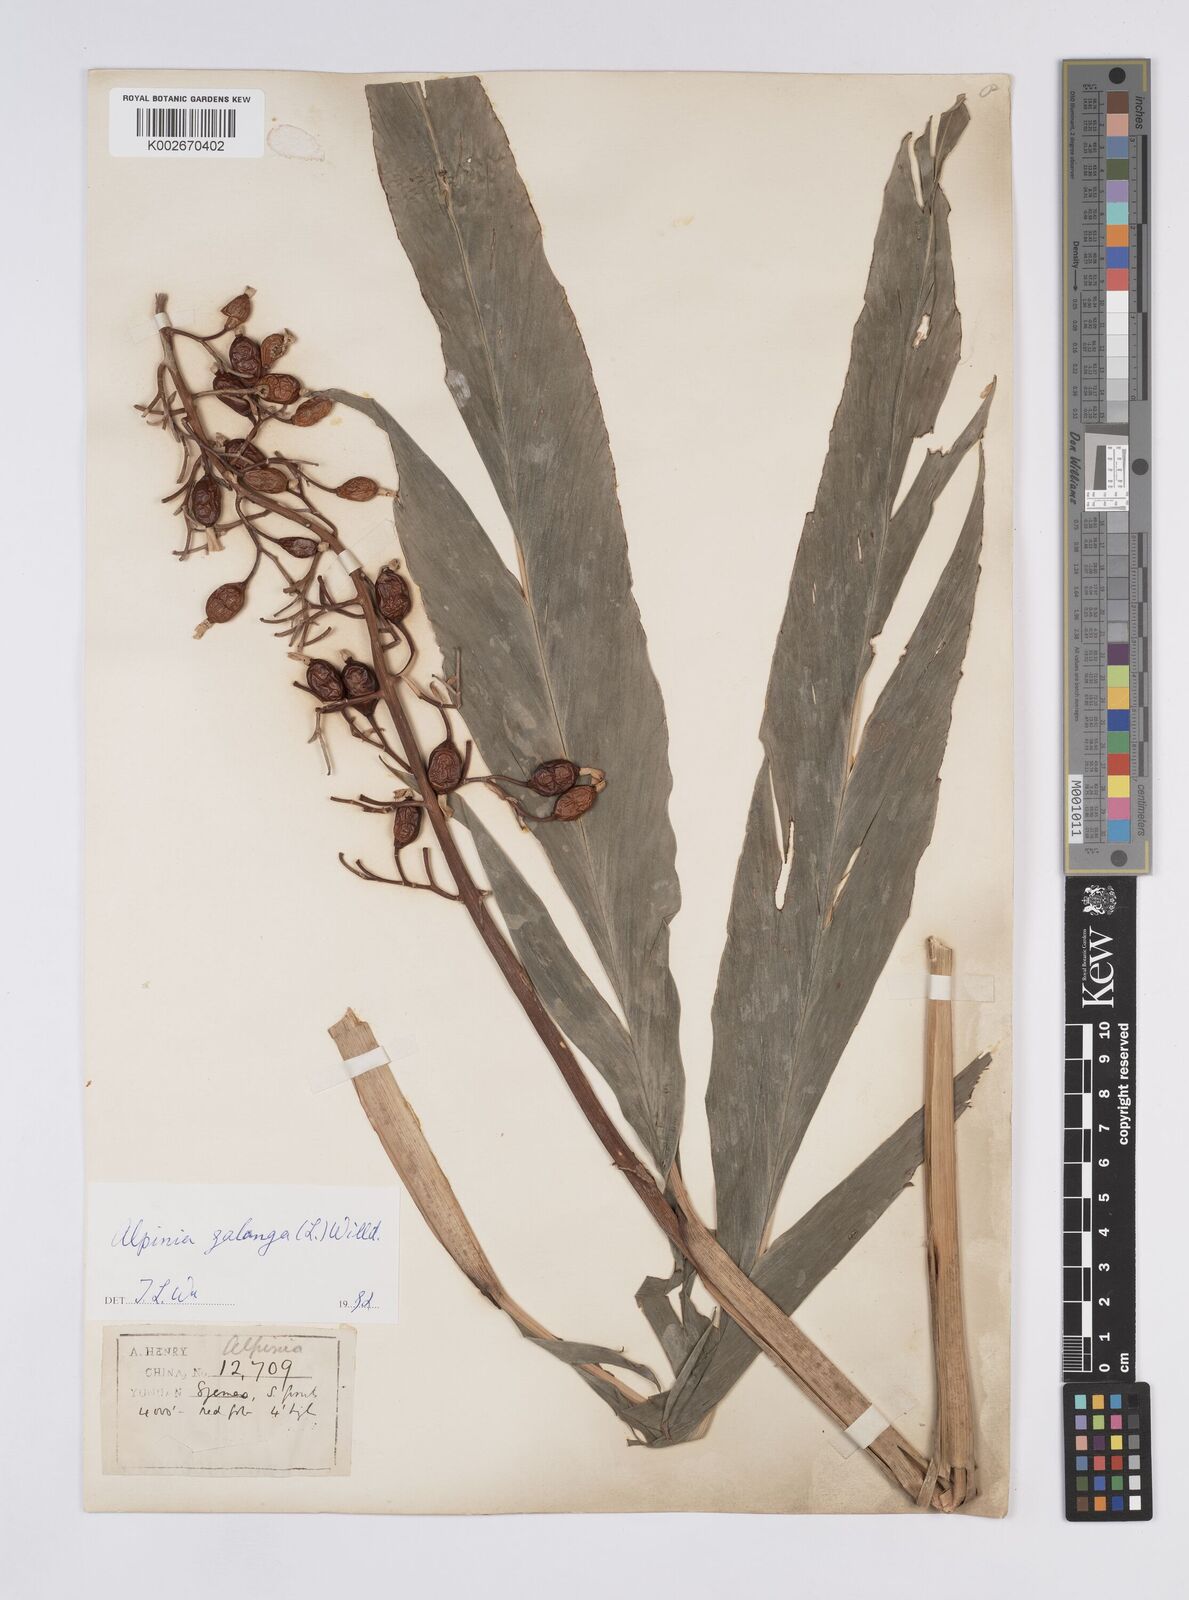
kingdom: Plantae
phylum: Tracheophyta
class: Liliopsida
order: Zingiberales
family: Zingiberaceae
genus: Alpinia
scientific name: Alpinia galanga
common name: Siamese-ginger
